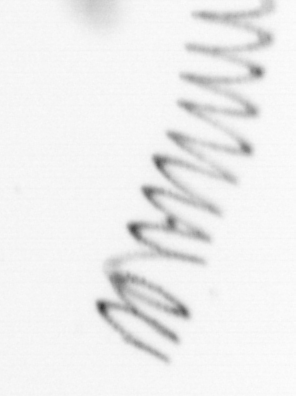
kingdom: Chromista
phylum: Ochrophyta
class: Bacillariophyceae
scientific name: Bacillariophyceae
